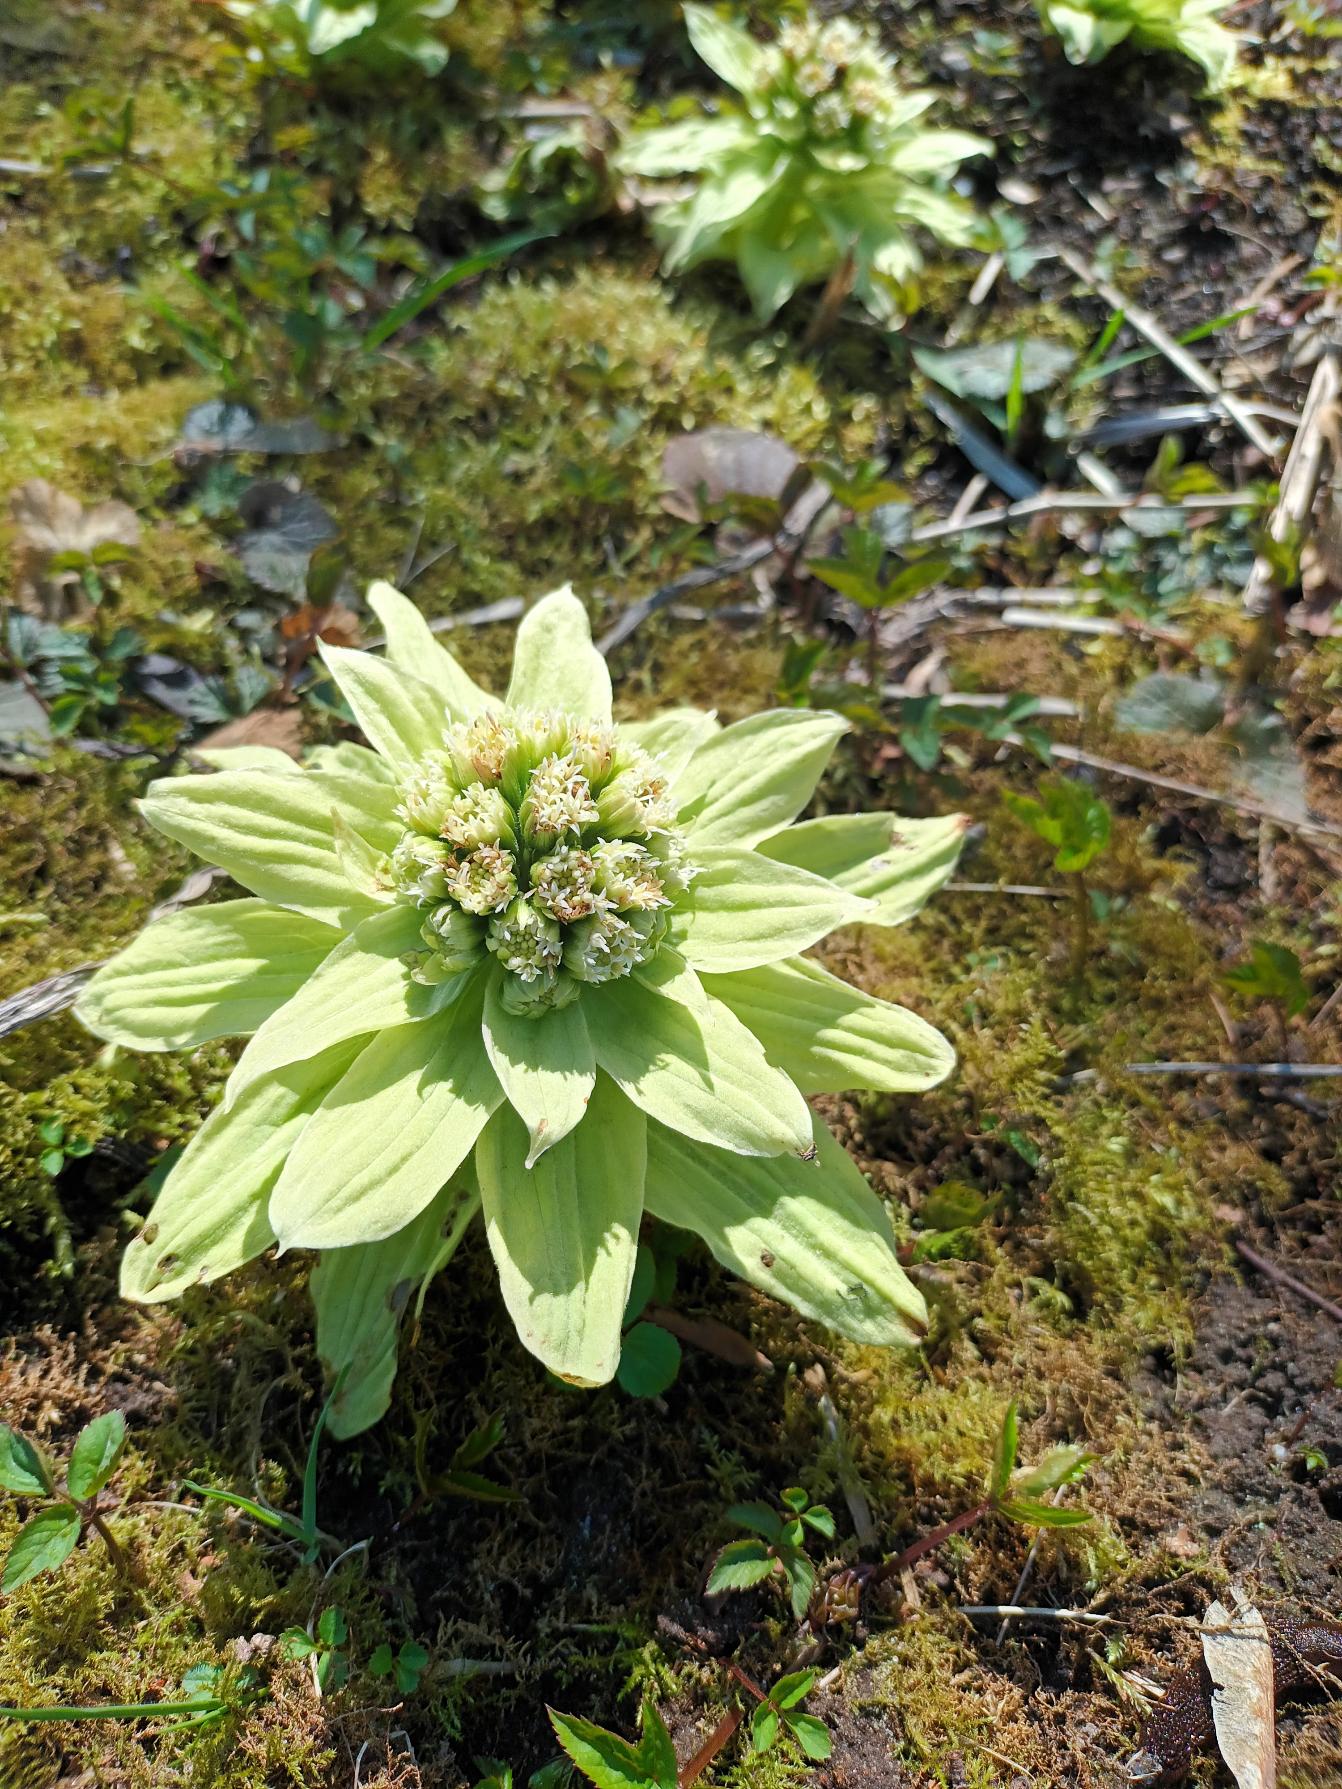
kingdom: Plantae
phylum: Tracheophyta
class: Magnoliopsida
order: Asterales
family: Asteraceae
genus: Petasites
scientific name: Petasites japonicus
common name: Japansk hestehov
